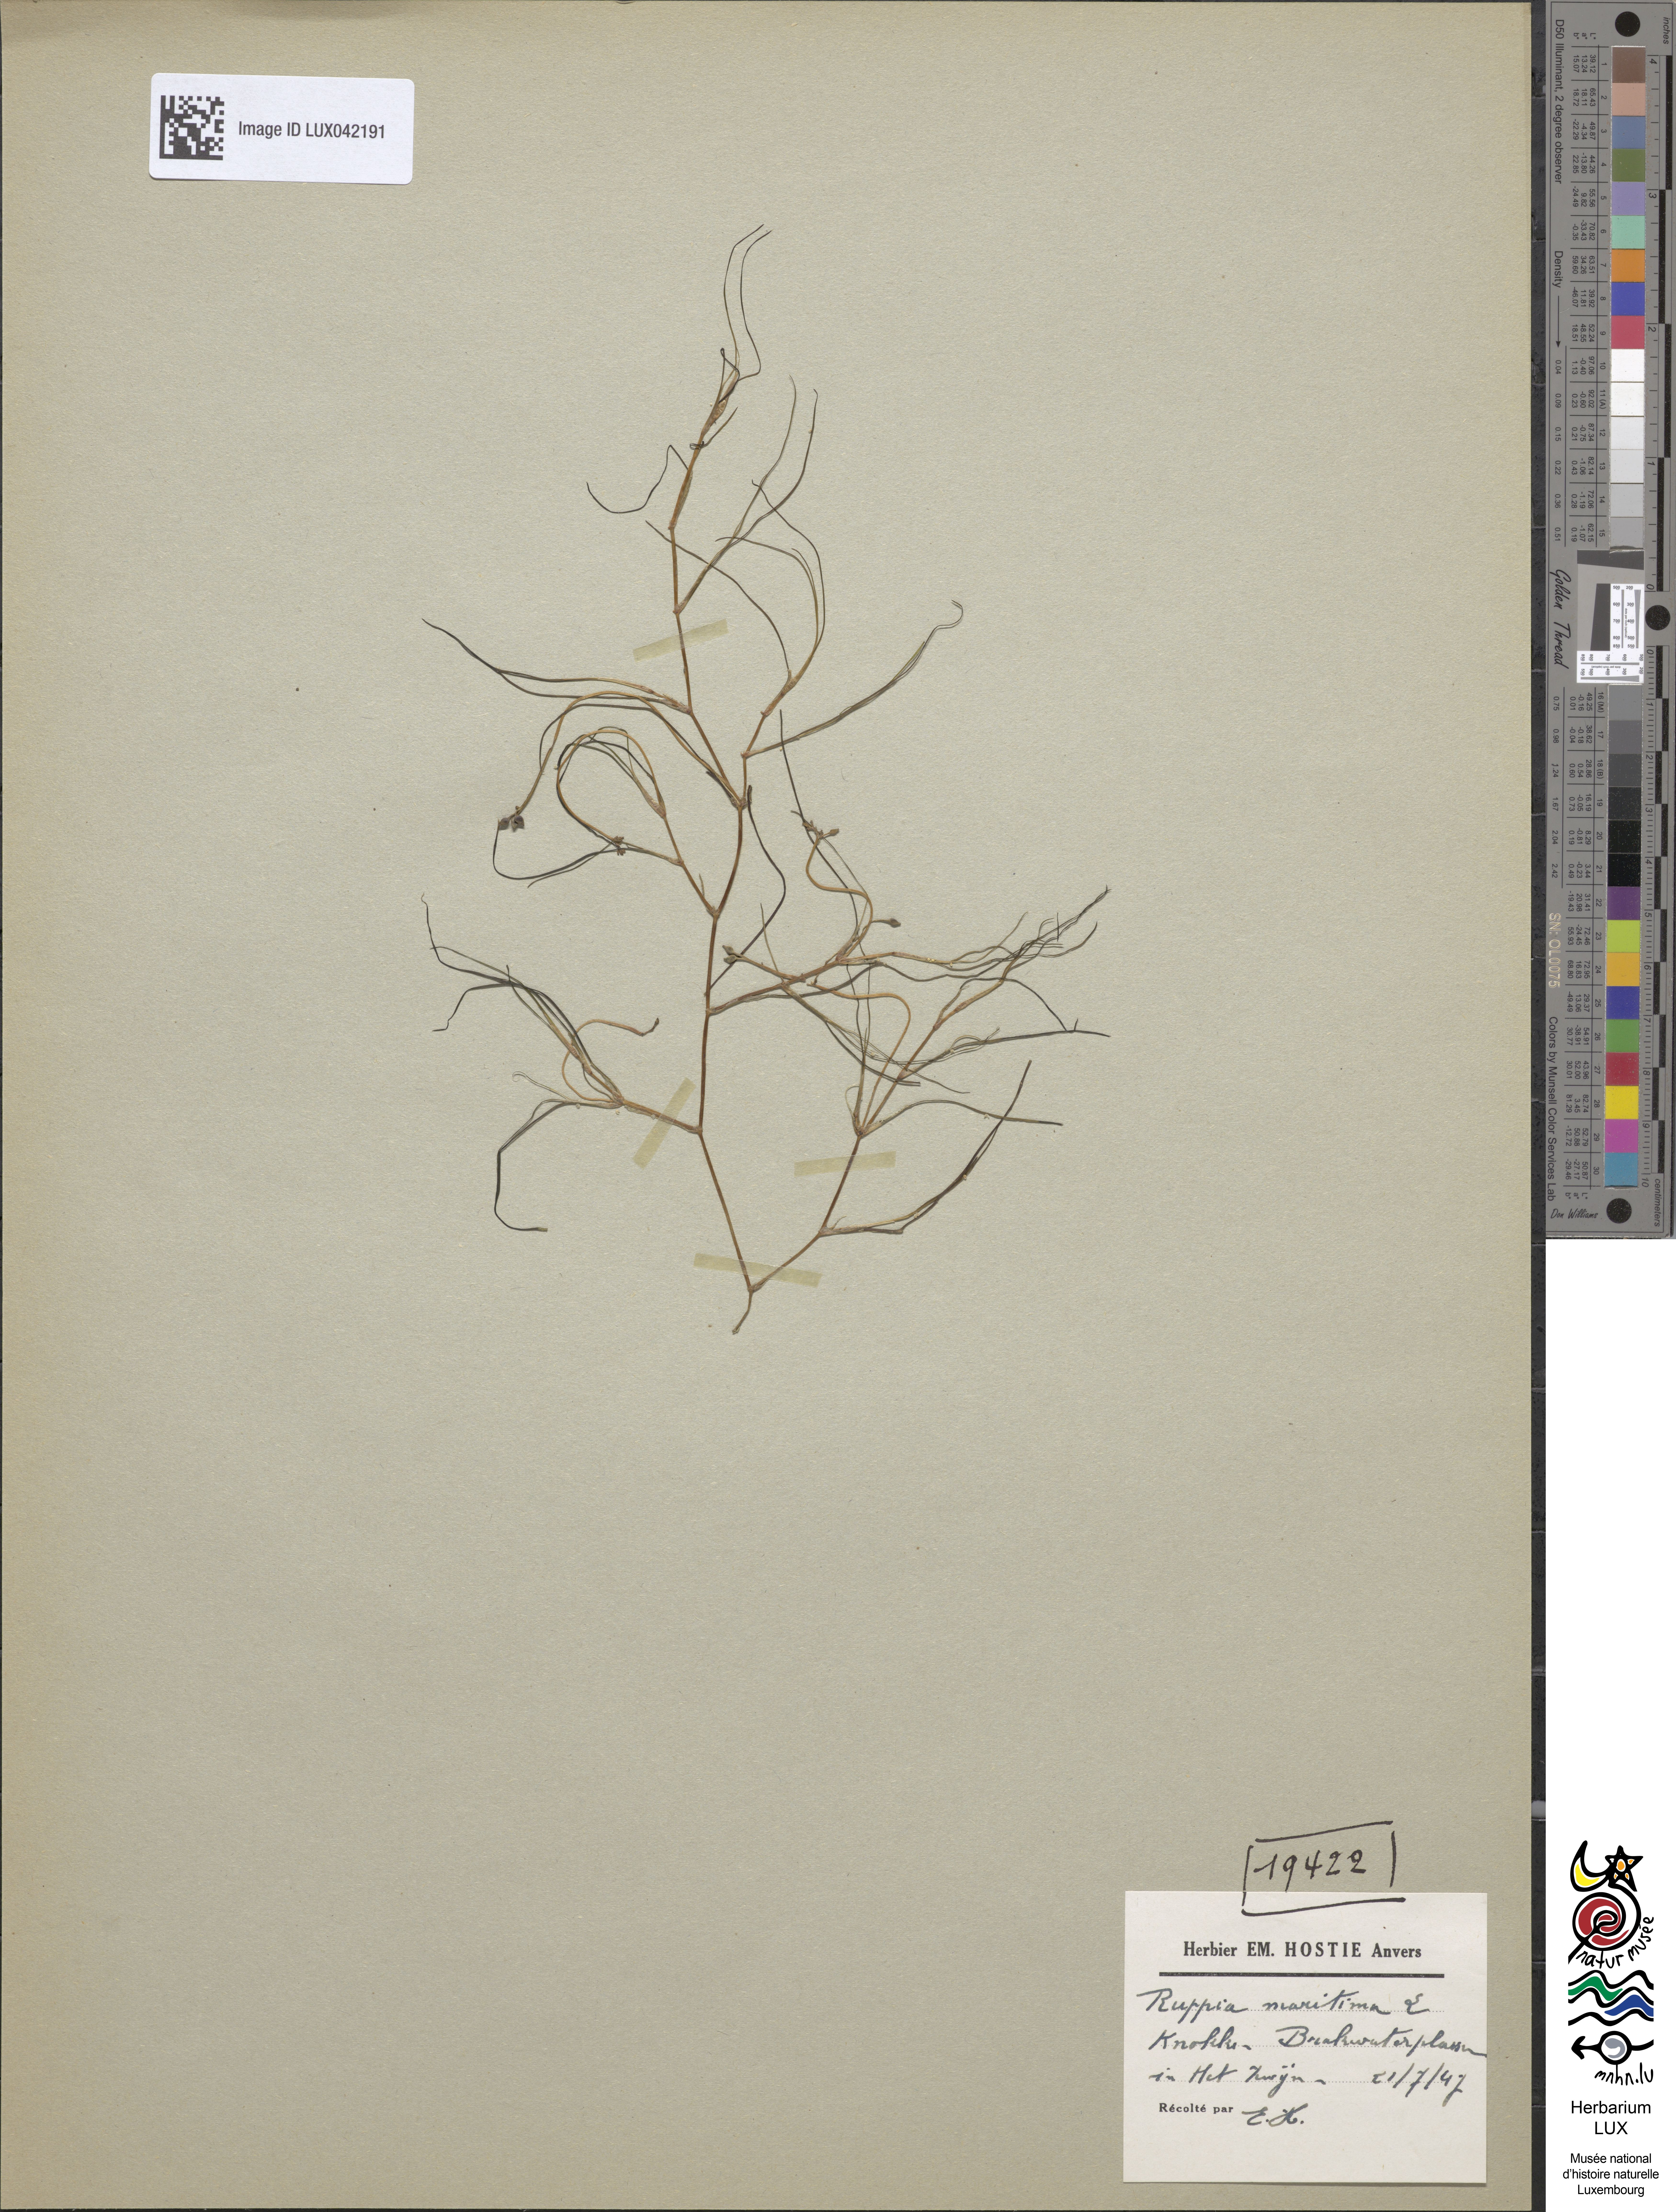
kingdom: Plantae
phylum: Tracheophyta
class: Liliopsida
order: Alismatales
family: Ruppiaceae
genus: Ruppia
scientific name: Ruppia maritima
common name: Beaked tasselweed
